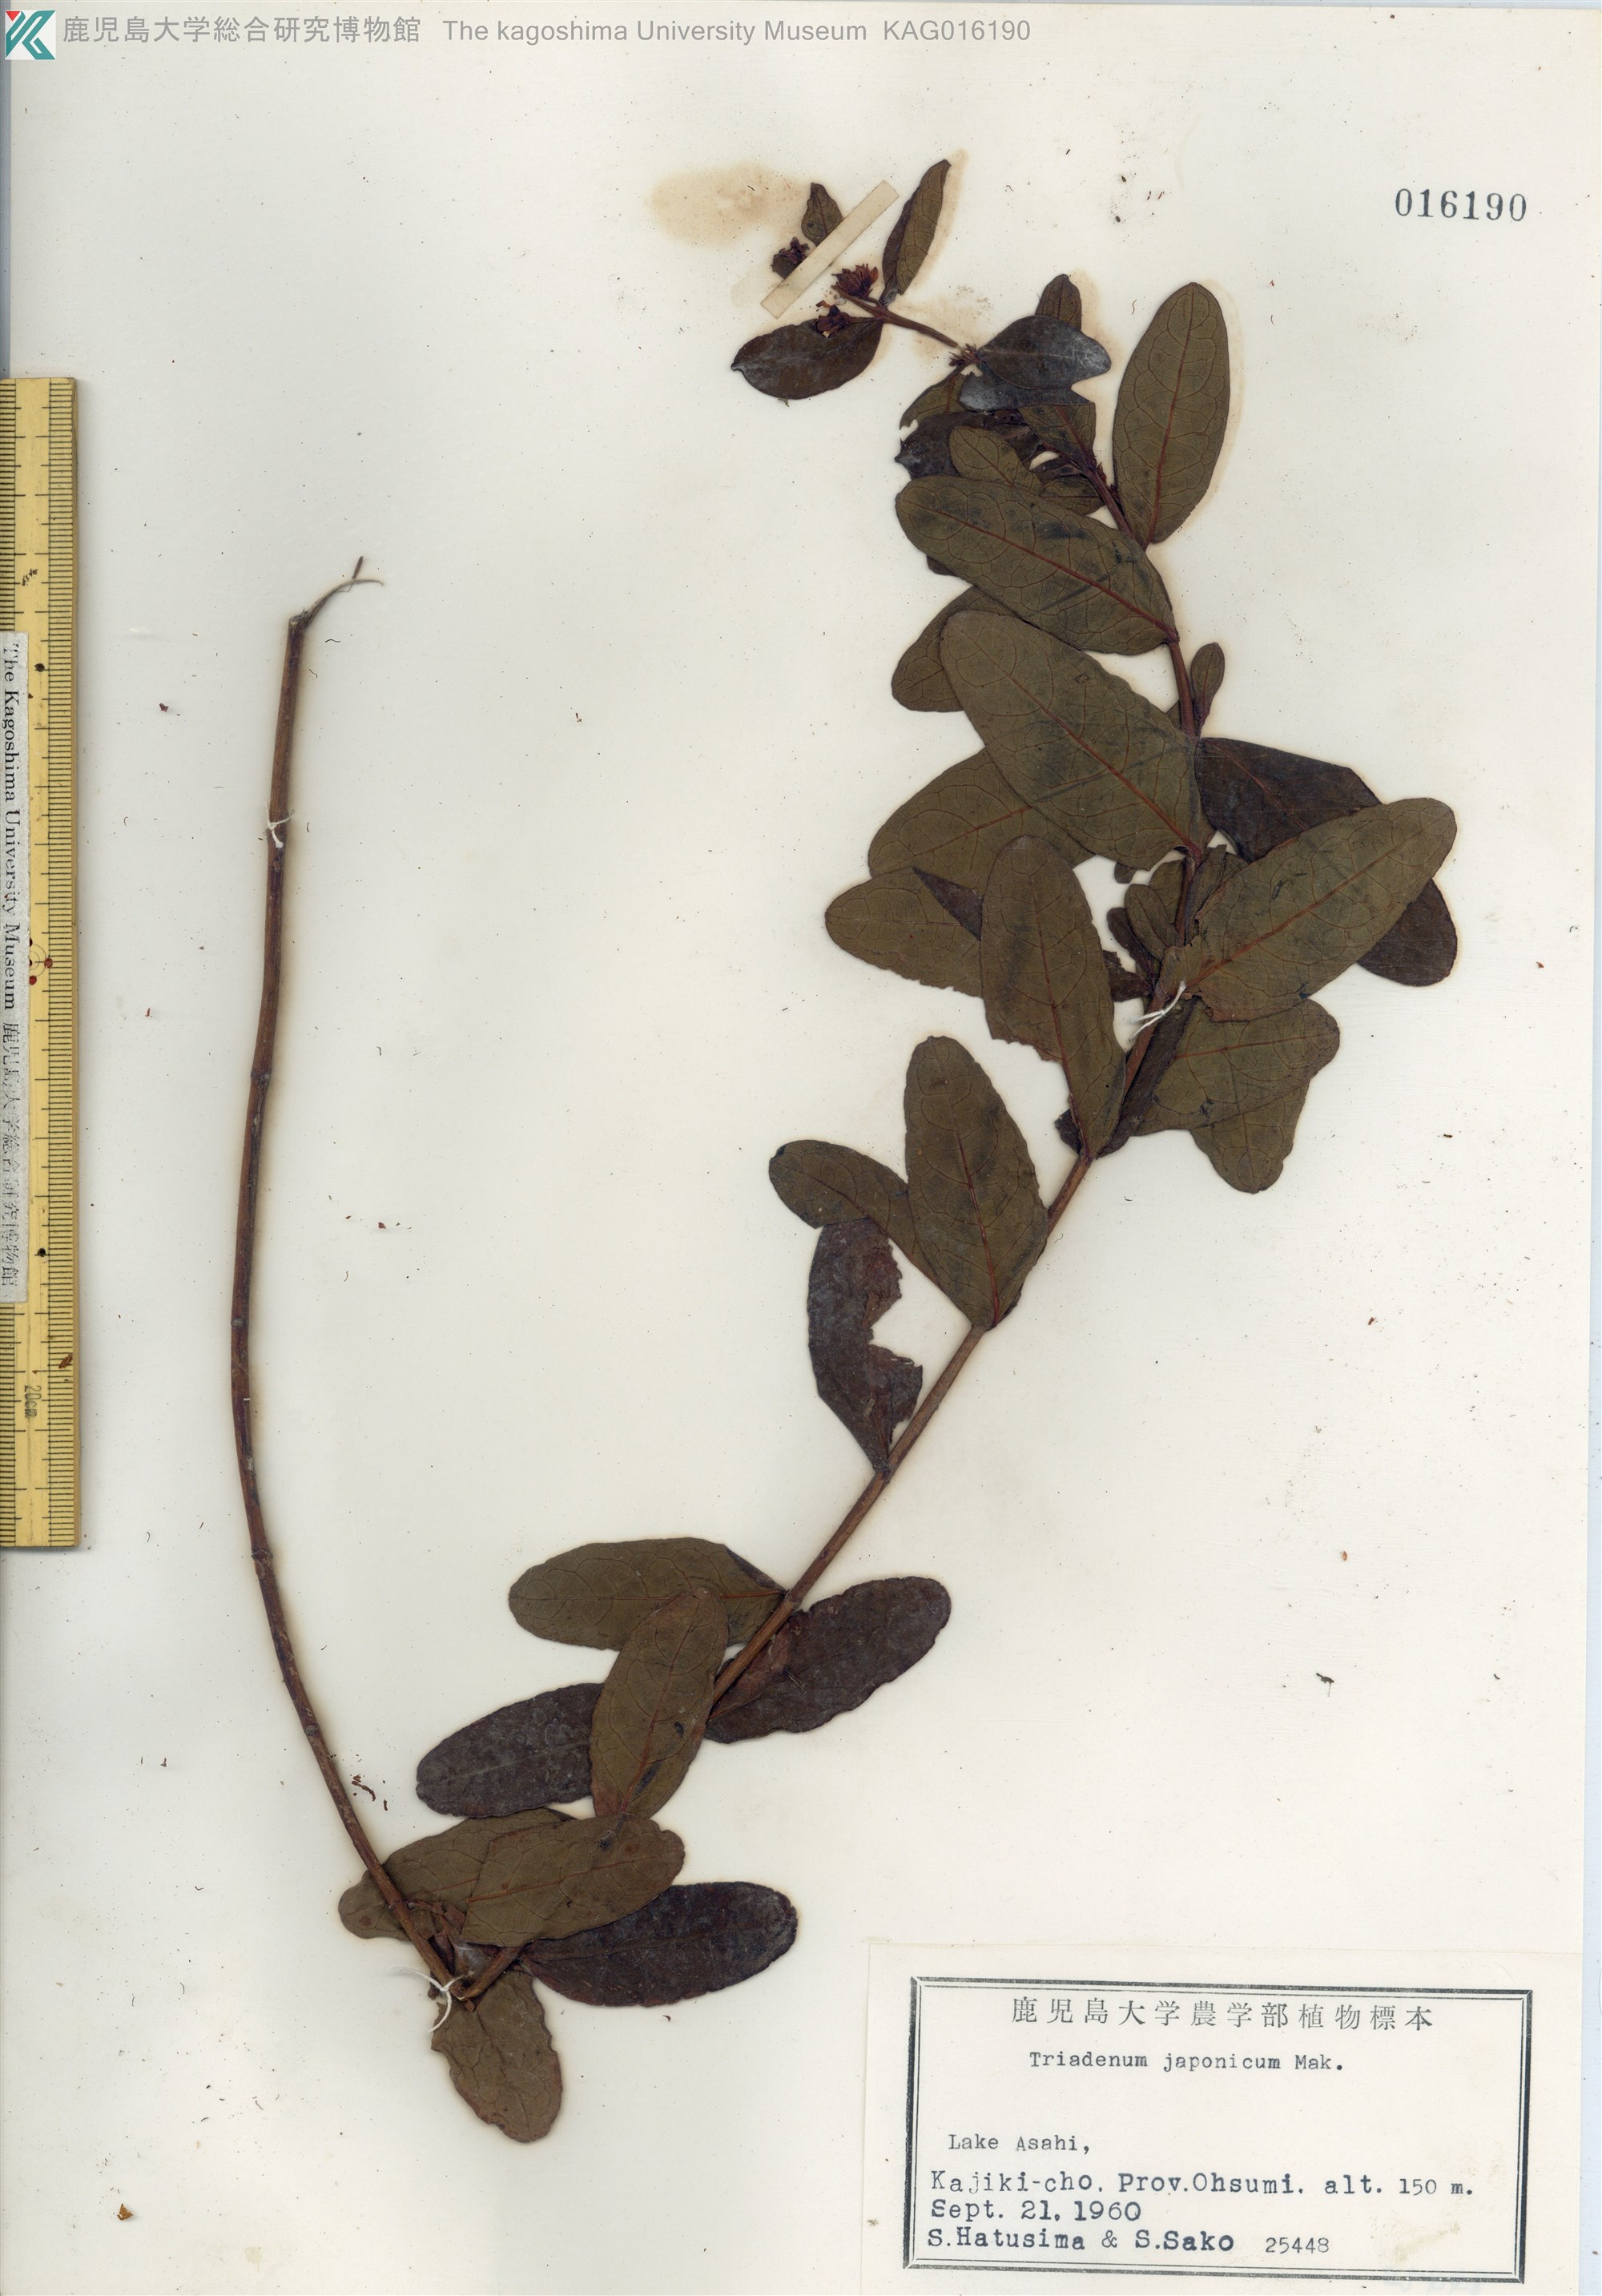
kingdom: Plantae
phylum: Tracheophyta
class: Magnoliopsida
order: Malpighiales
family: Hypericaceae
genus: Triadenum
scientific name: Triadenum japonicum
